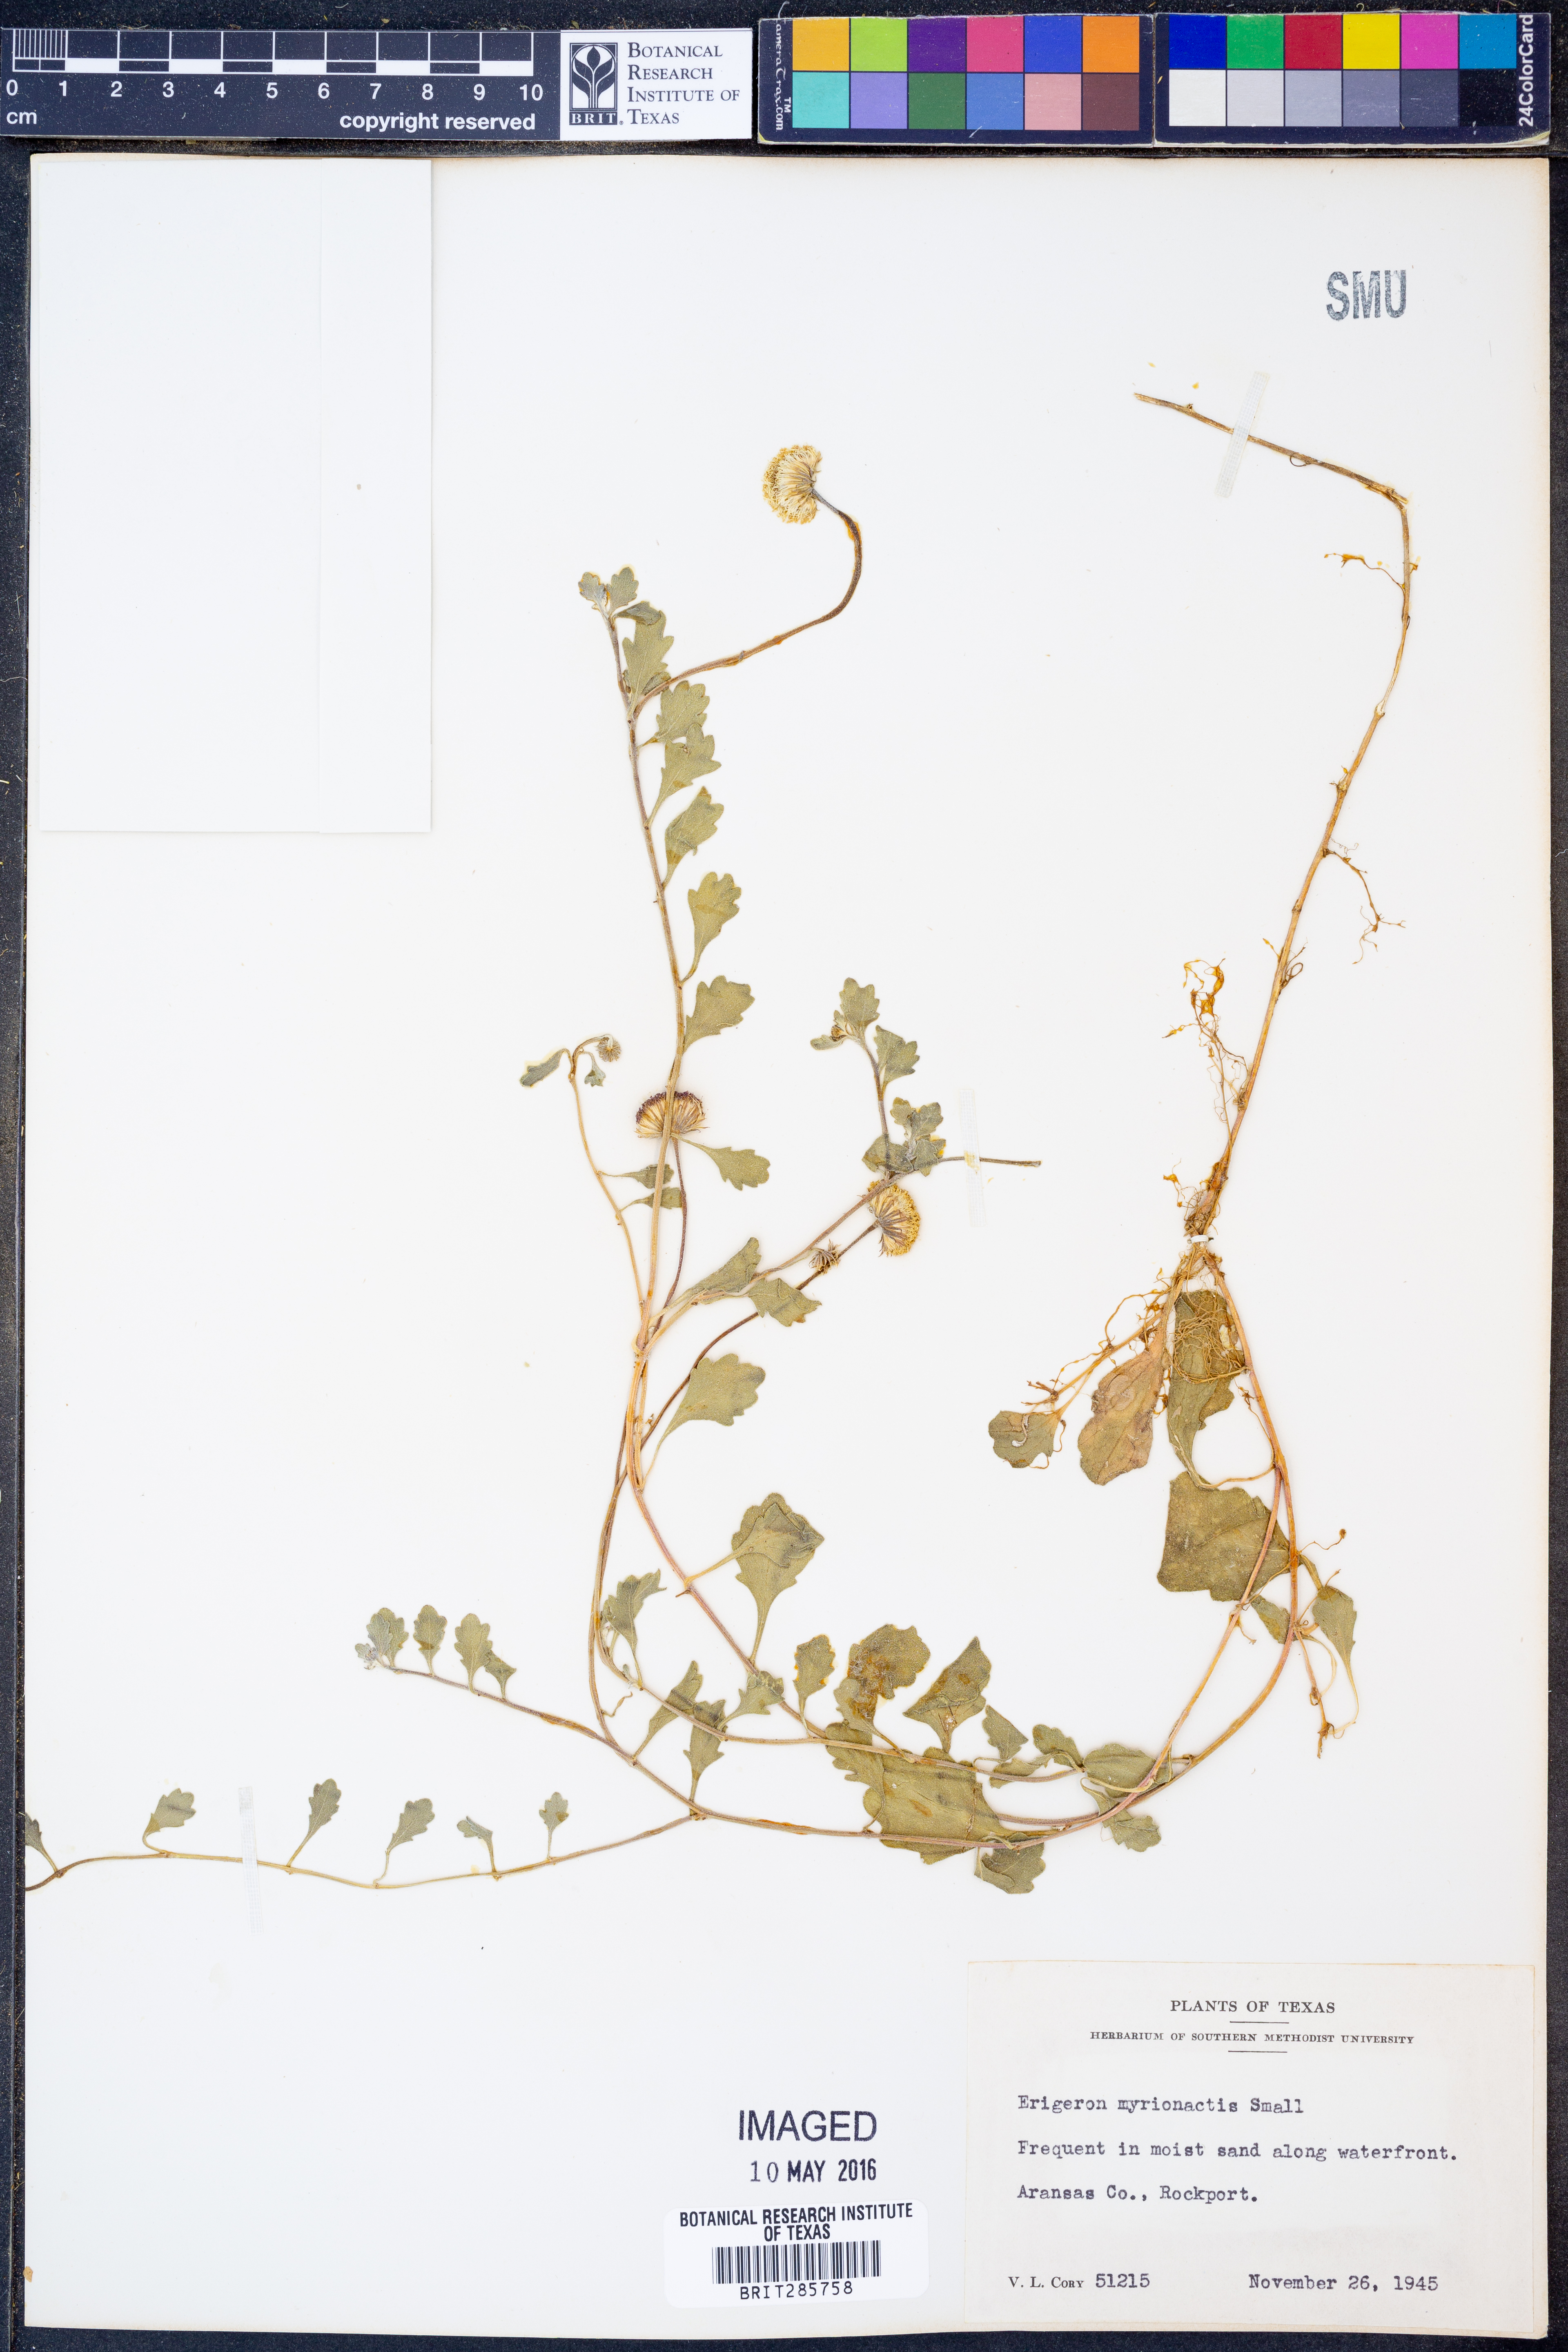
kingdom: Plantae
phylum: Tracheophyta
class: Magnoliopsida
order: Asterales
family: Asteraceae
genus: Erigeron
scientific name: Erigeron procumbens
